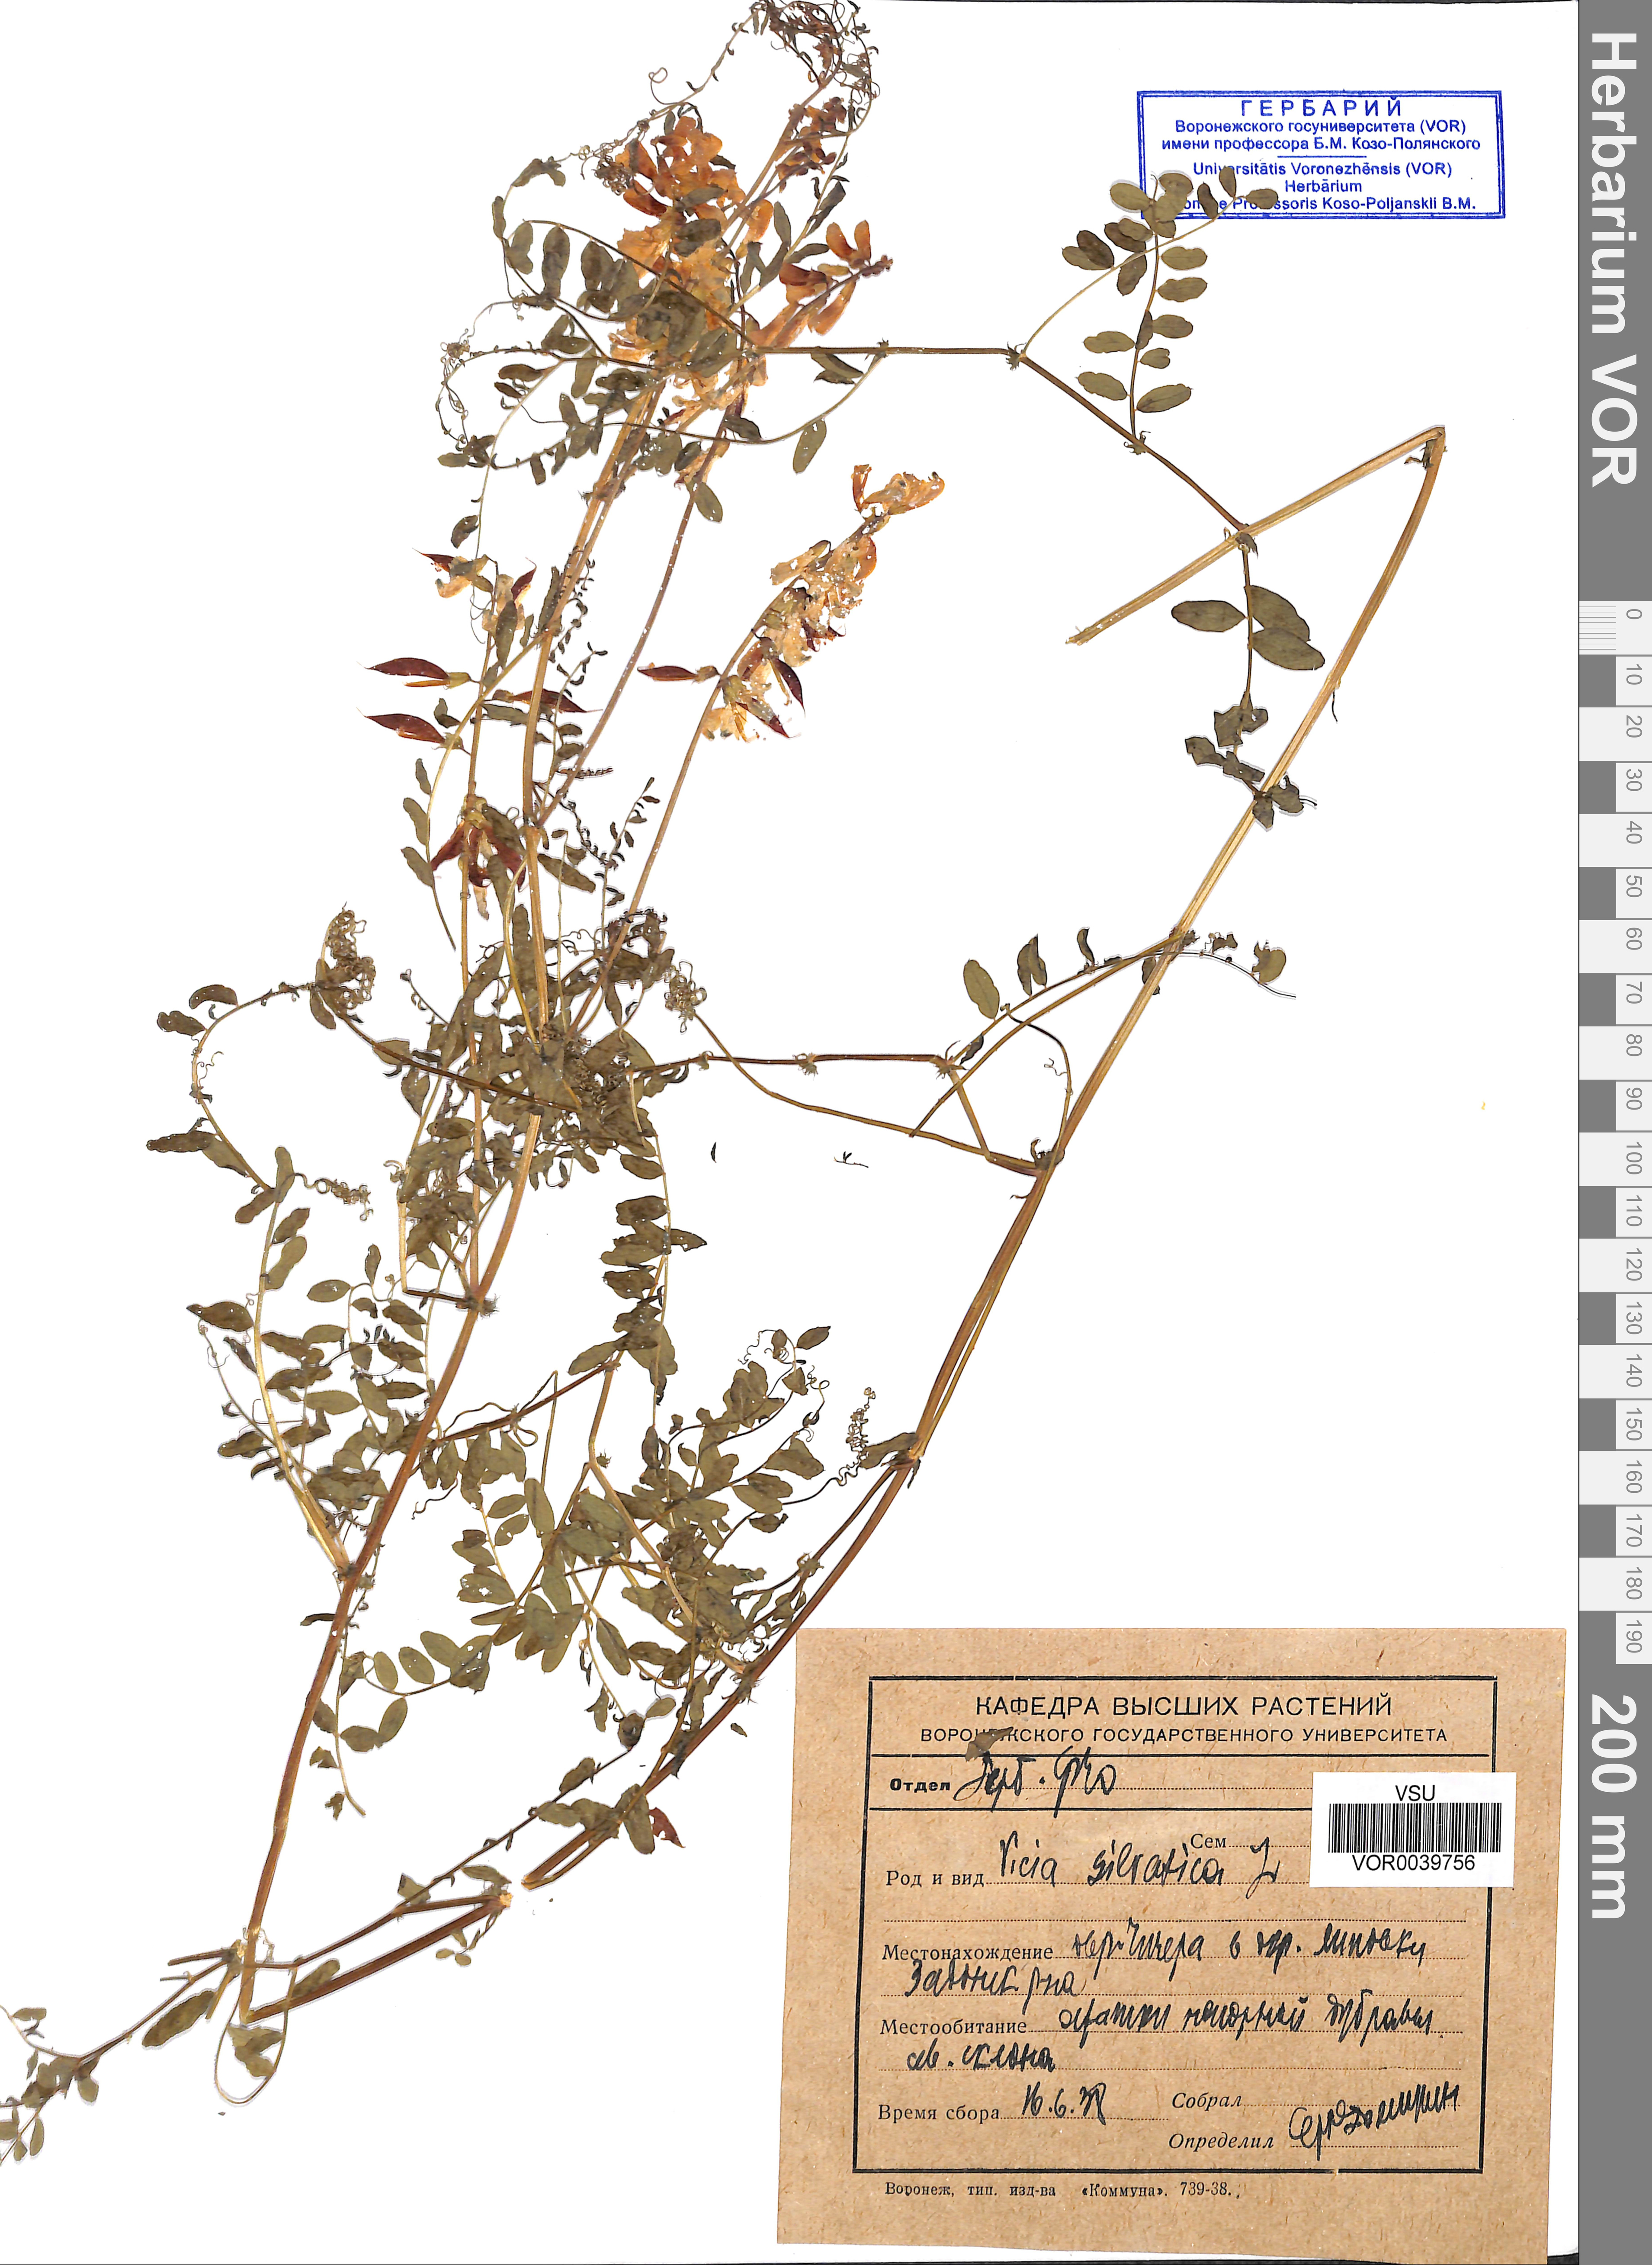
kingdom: Plantae
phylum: Tracheophyta
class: Magnoliopsida
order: Fabales
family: Fabaceae
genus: Vicia
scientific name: Vicia sylvatica
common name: Wood vetch
